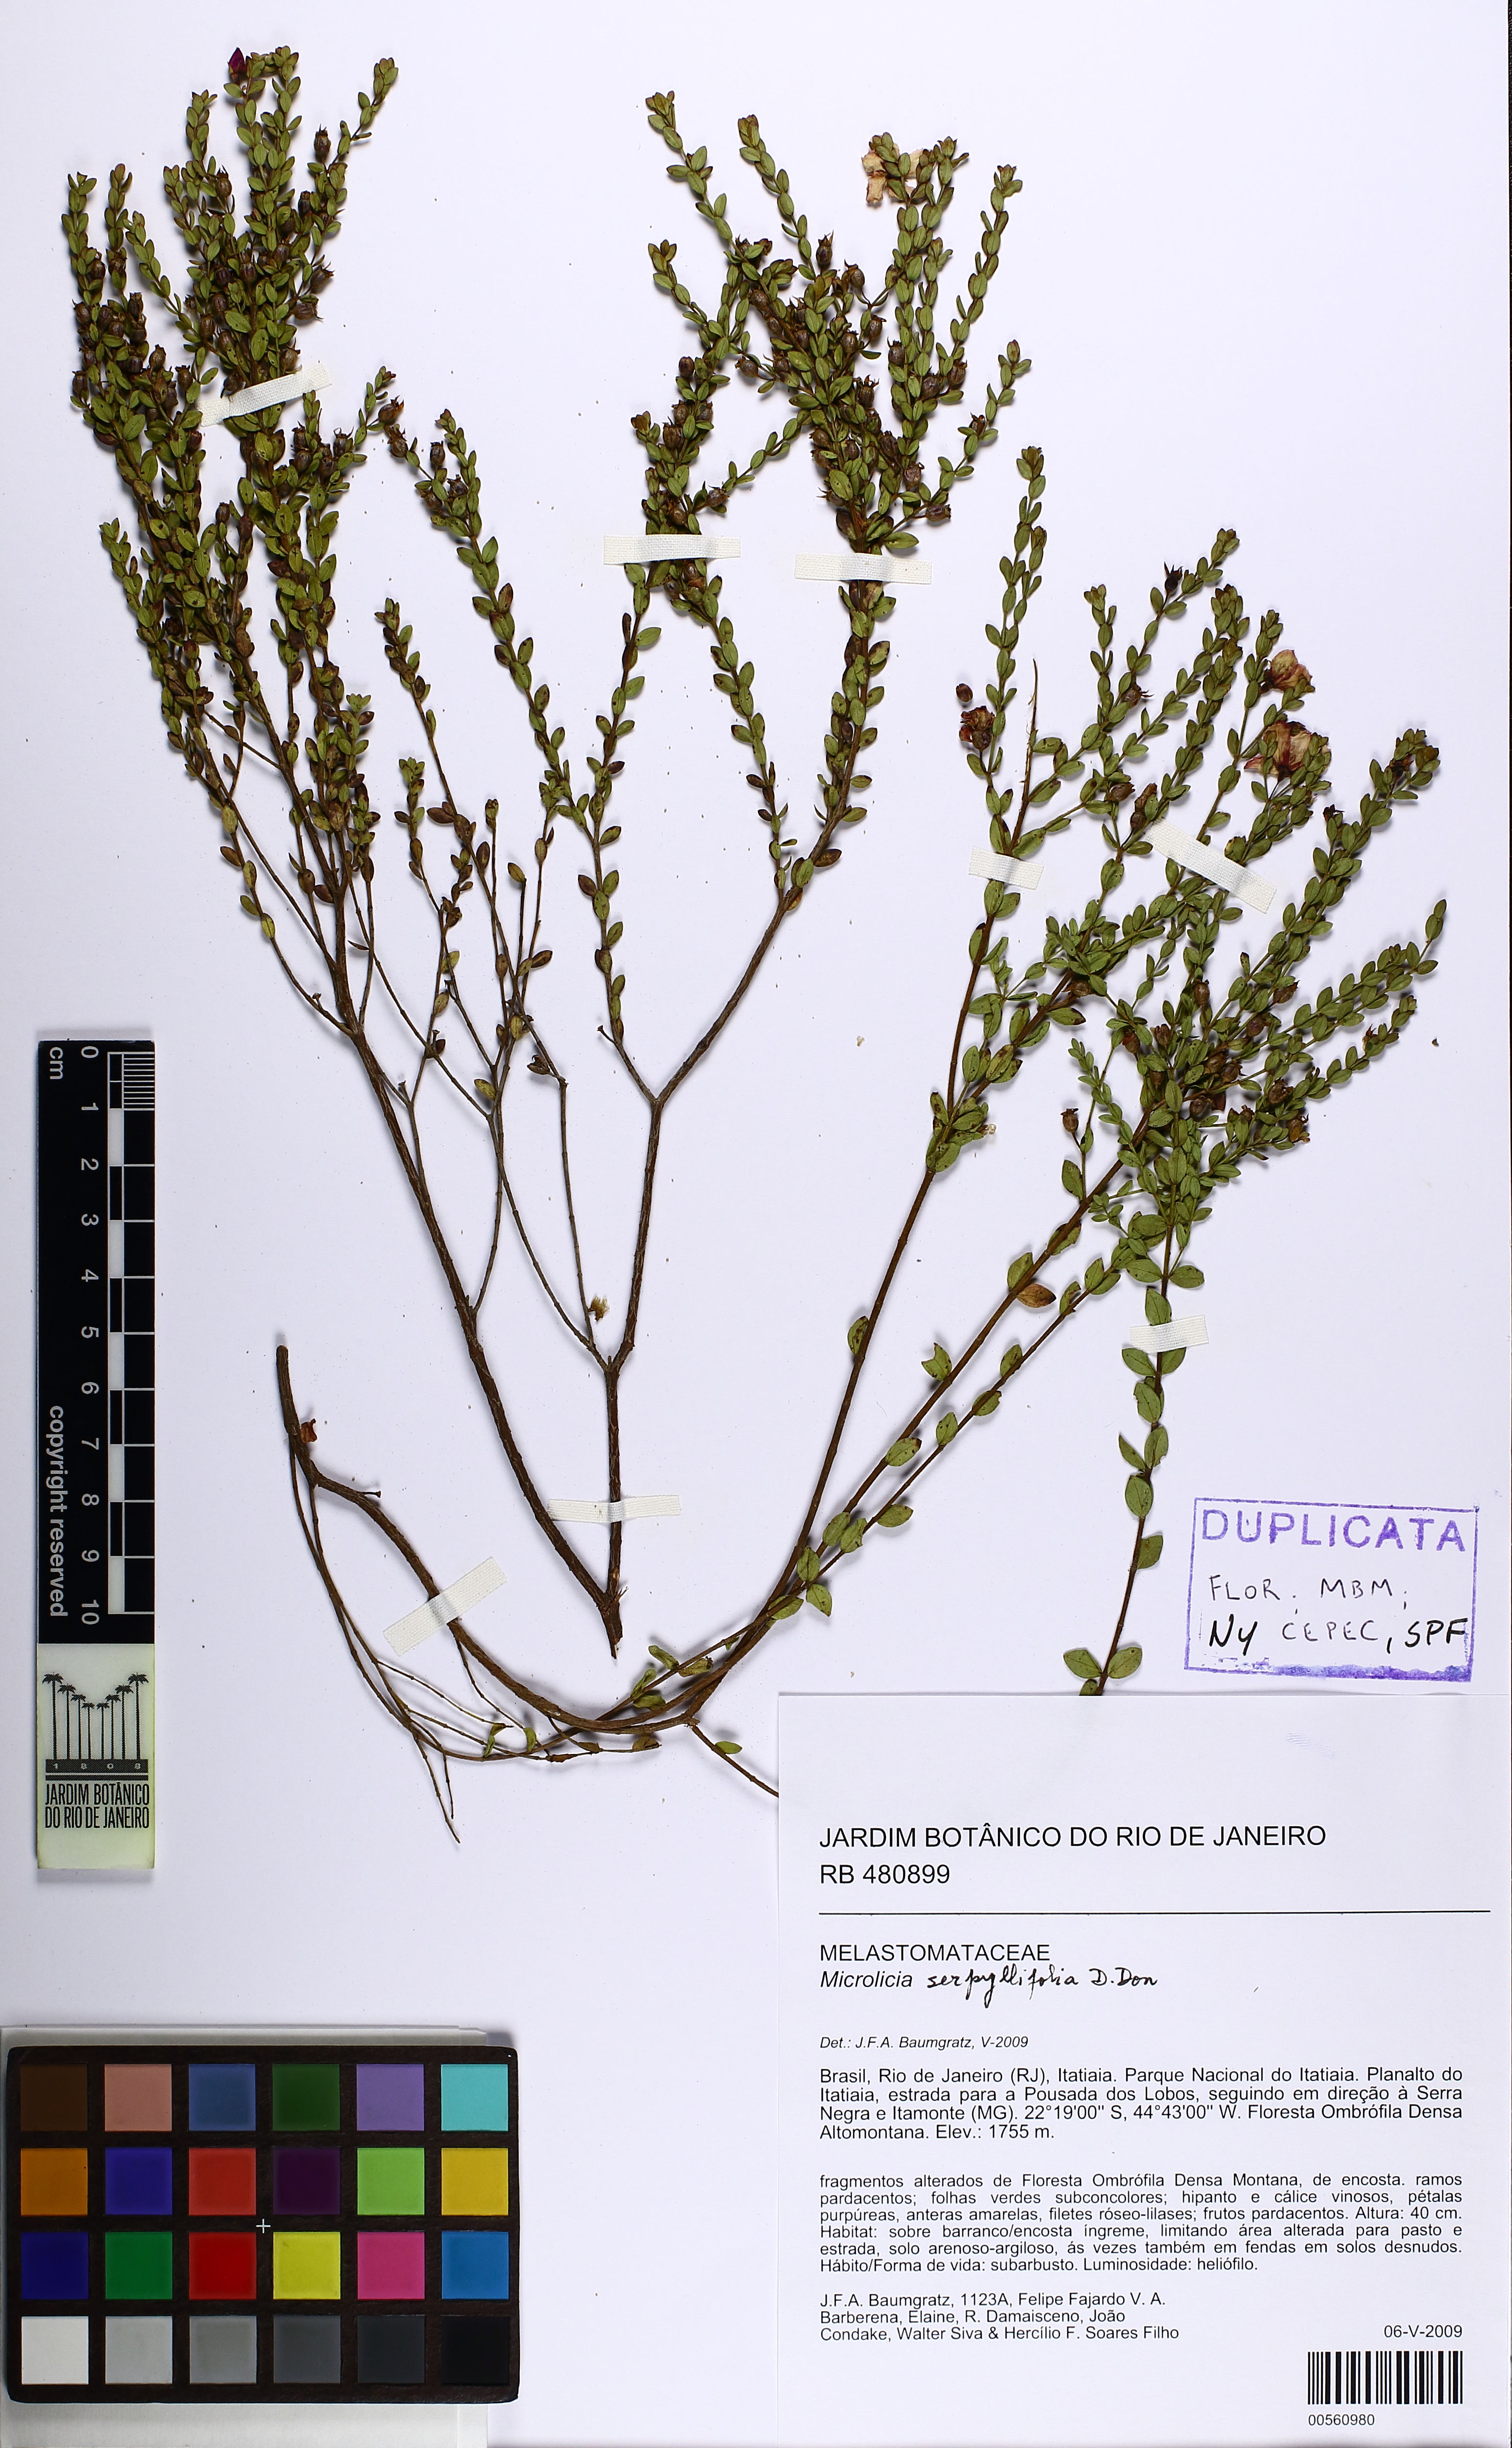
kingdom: Plantae
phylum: Tracheophyta
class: Magnoliopsida
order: Myrtales
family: Melastomataceae
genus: Microlicia
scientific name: Microlicia fulva
